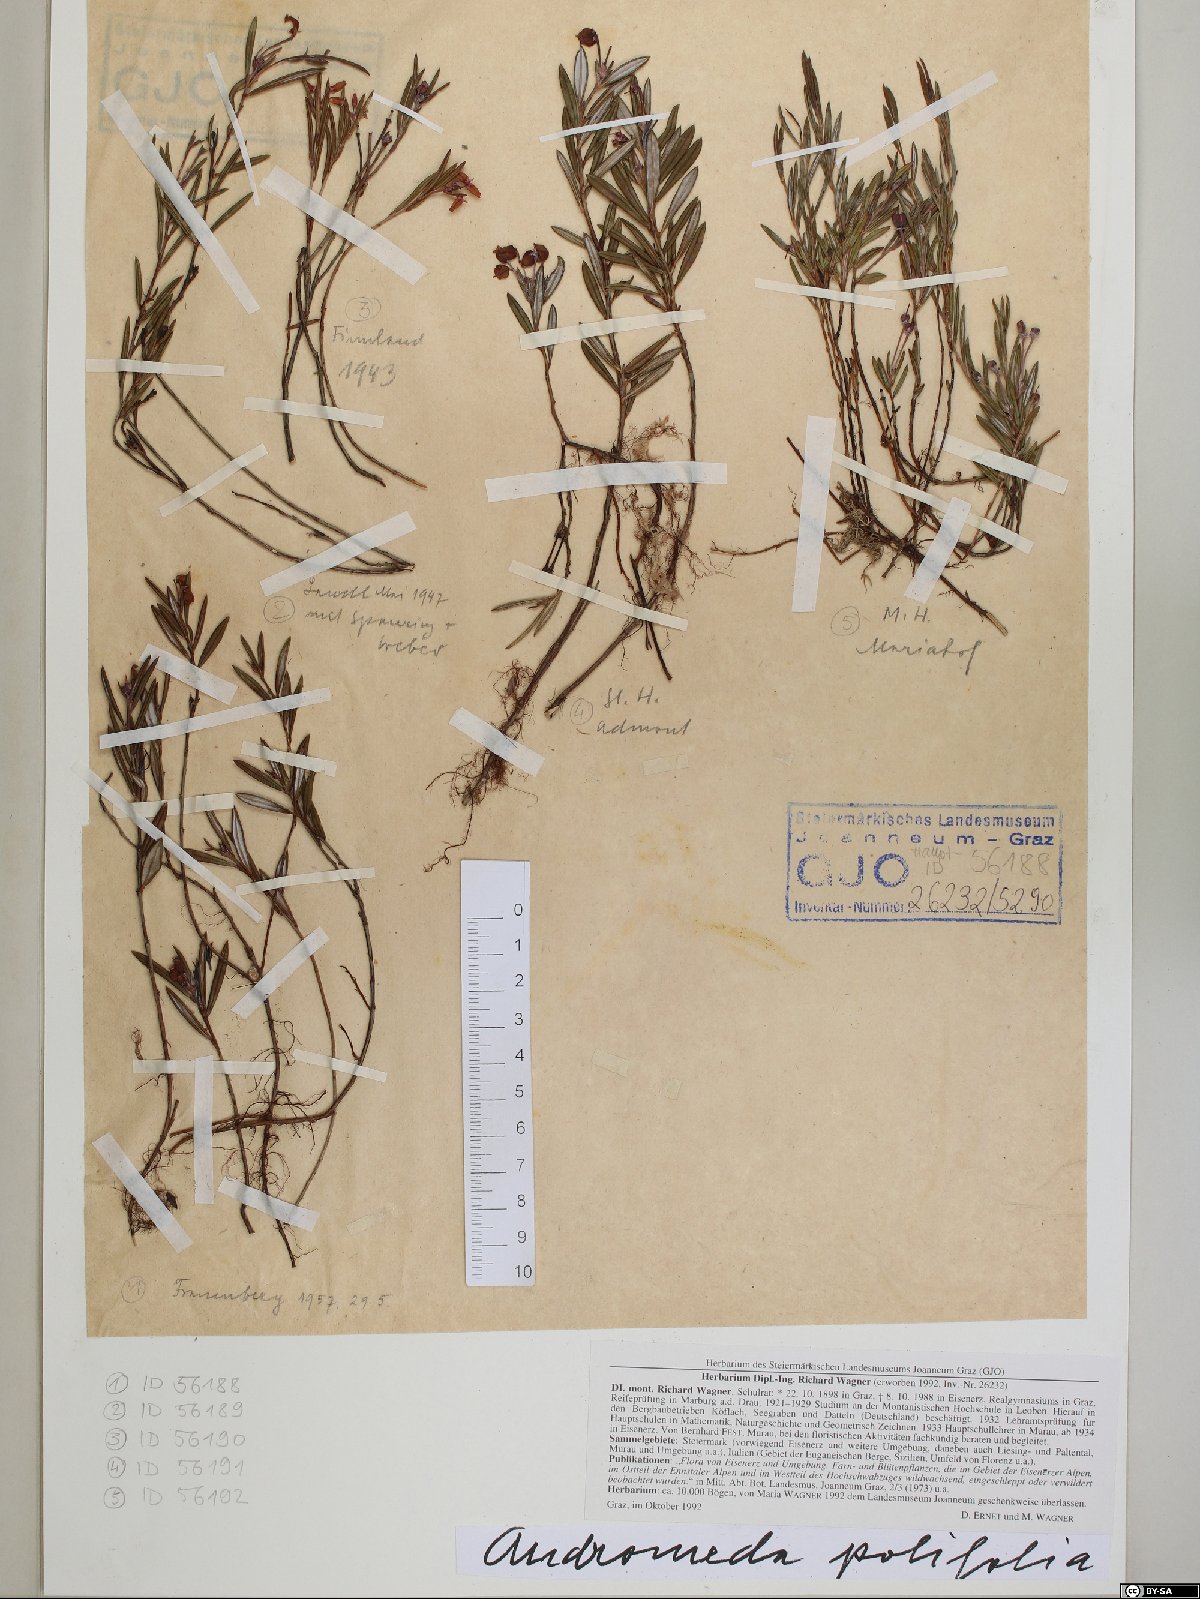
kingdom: Plantae
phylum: Tracheophyta
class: Magnoliopsida
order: Ericales
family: Ericaceae
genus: Andromeda
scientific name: Andromeda polifolia
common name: Bog-rosemary
